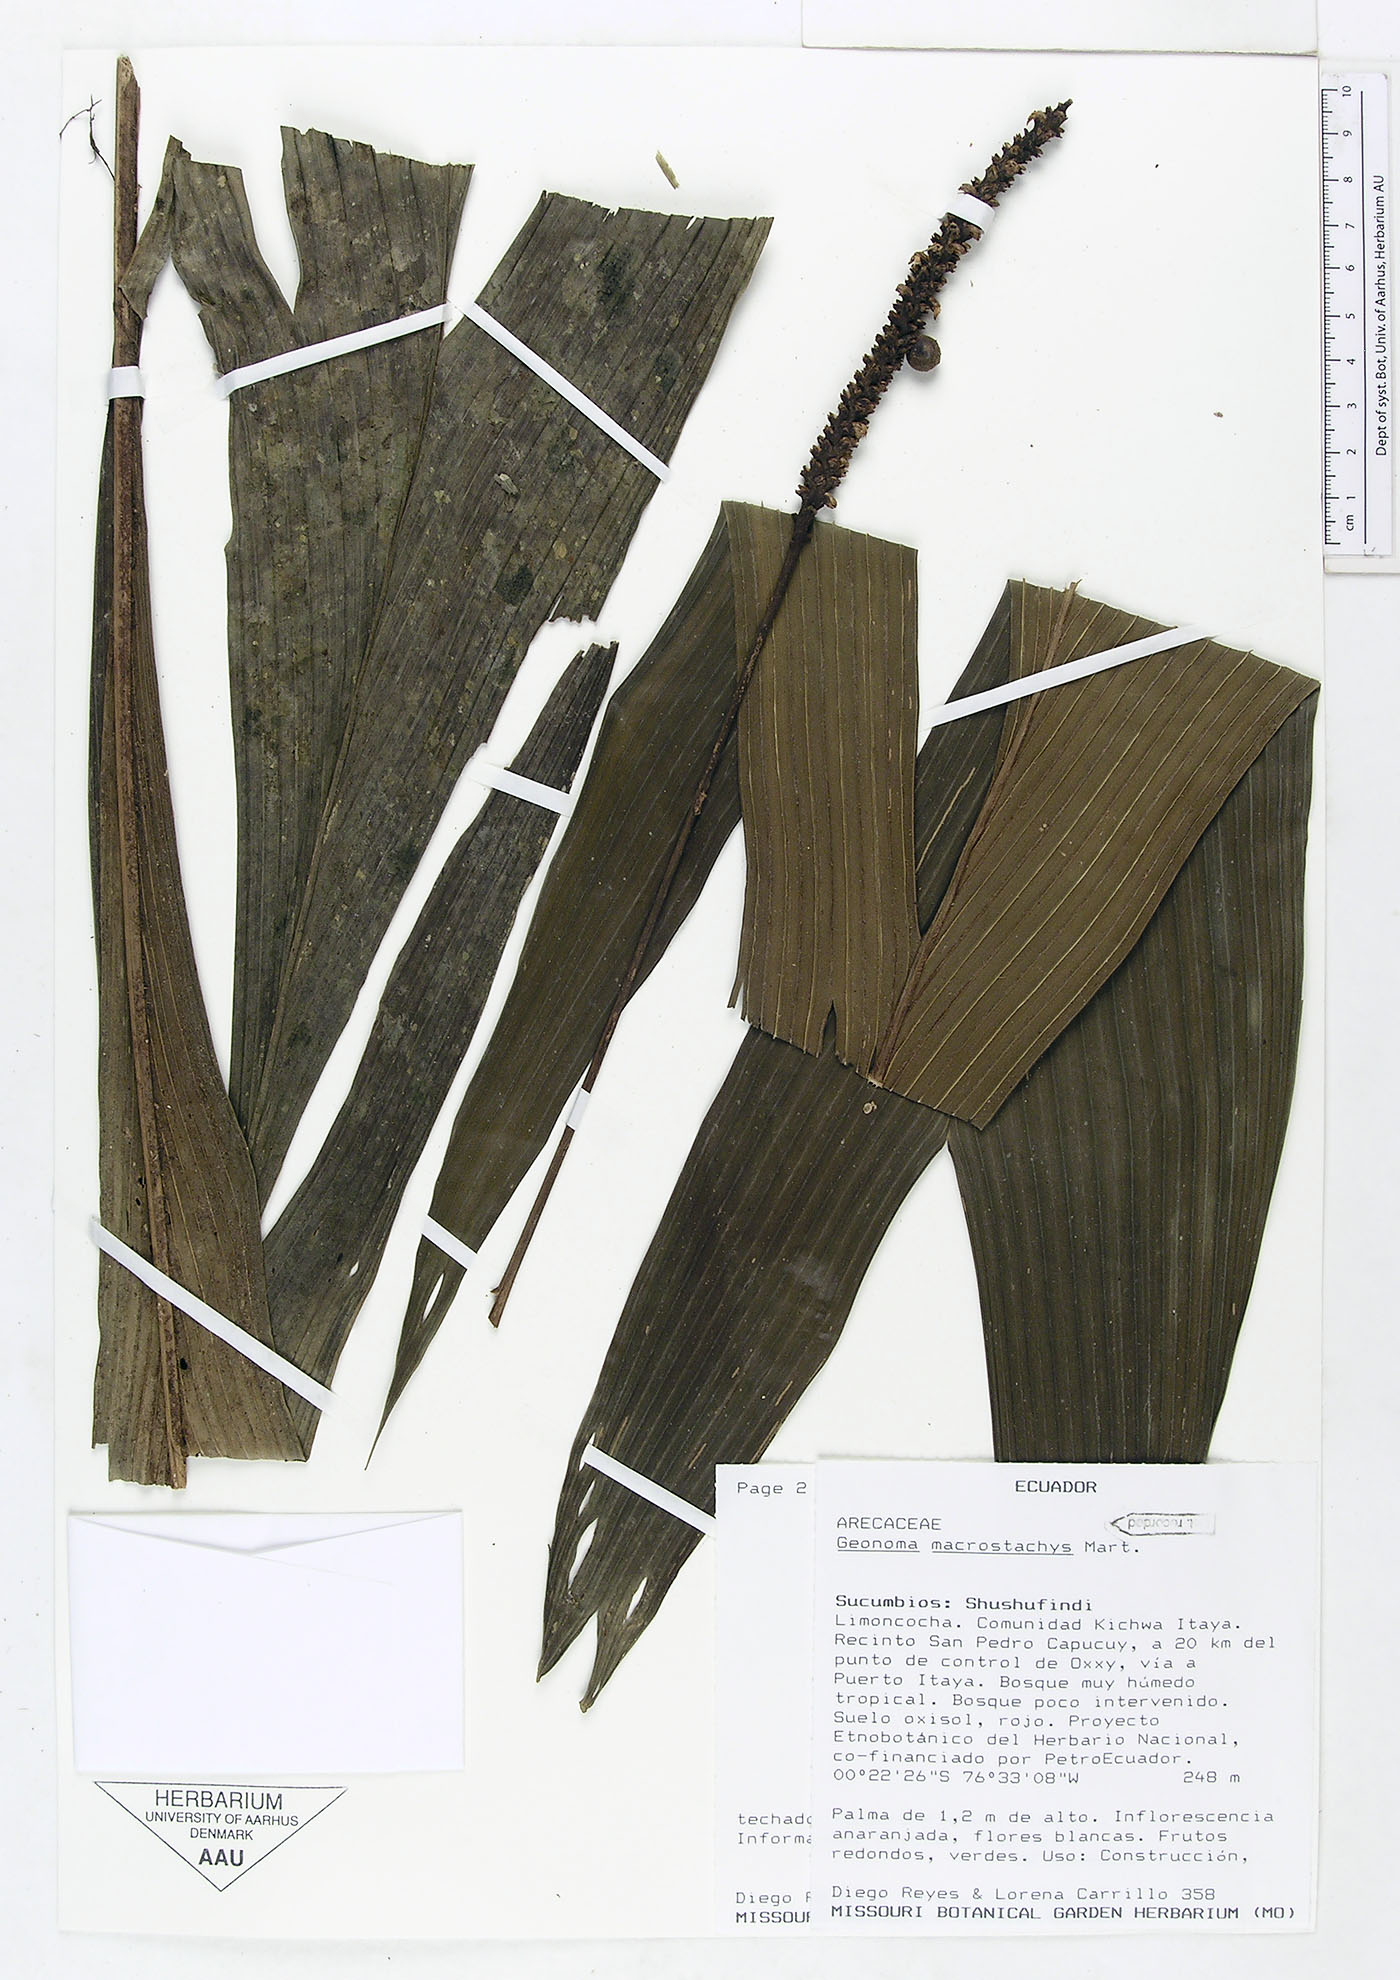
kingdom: Plantae
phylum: Tracheophyta
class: Liliopsida
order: Arecales
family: Arecaceae
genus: Geonoma
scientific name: Geonoma macrostachys
